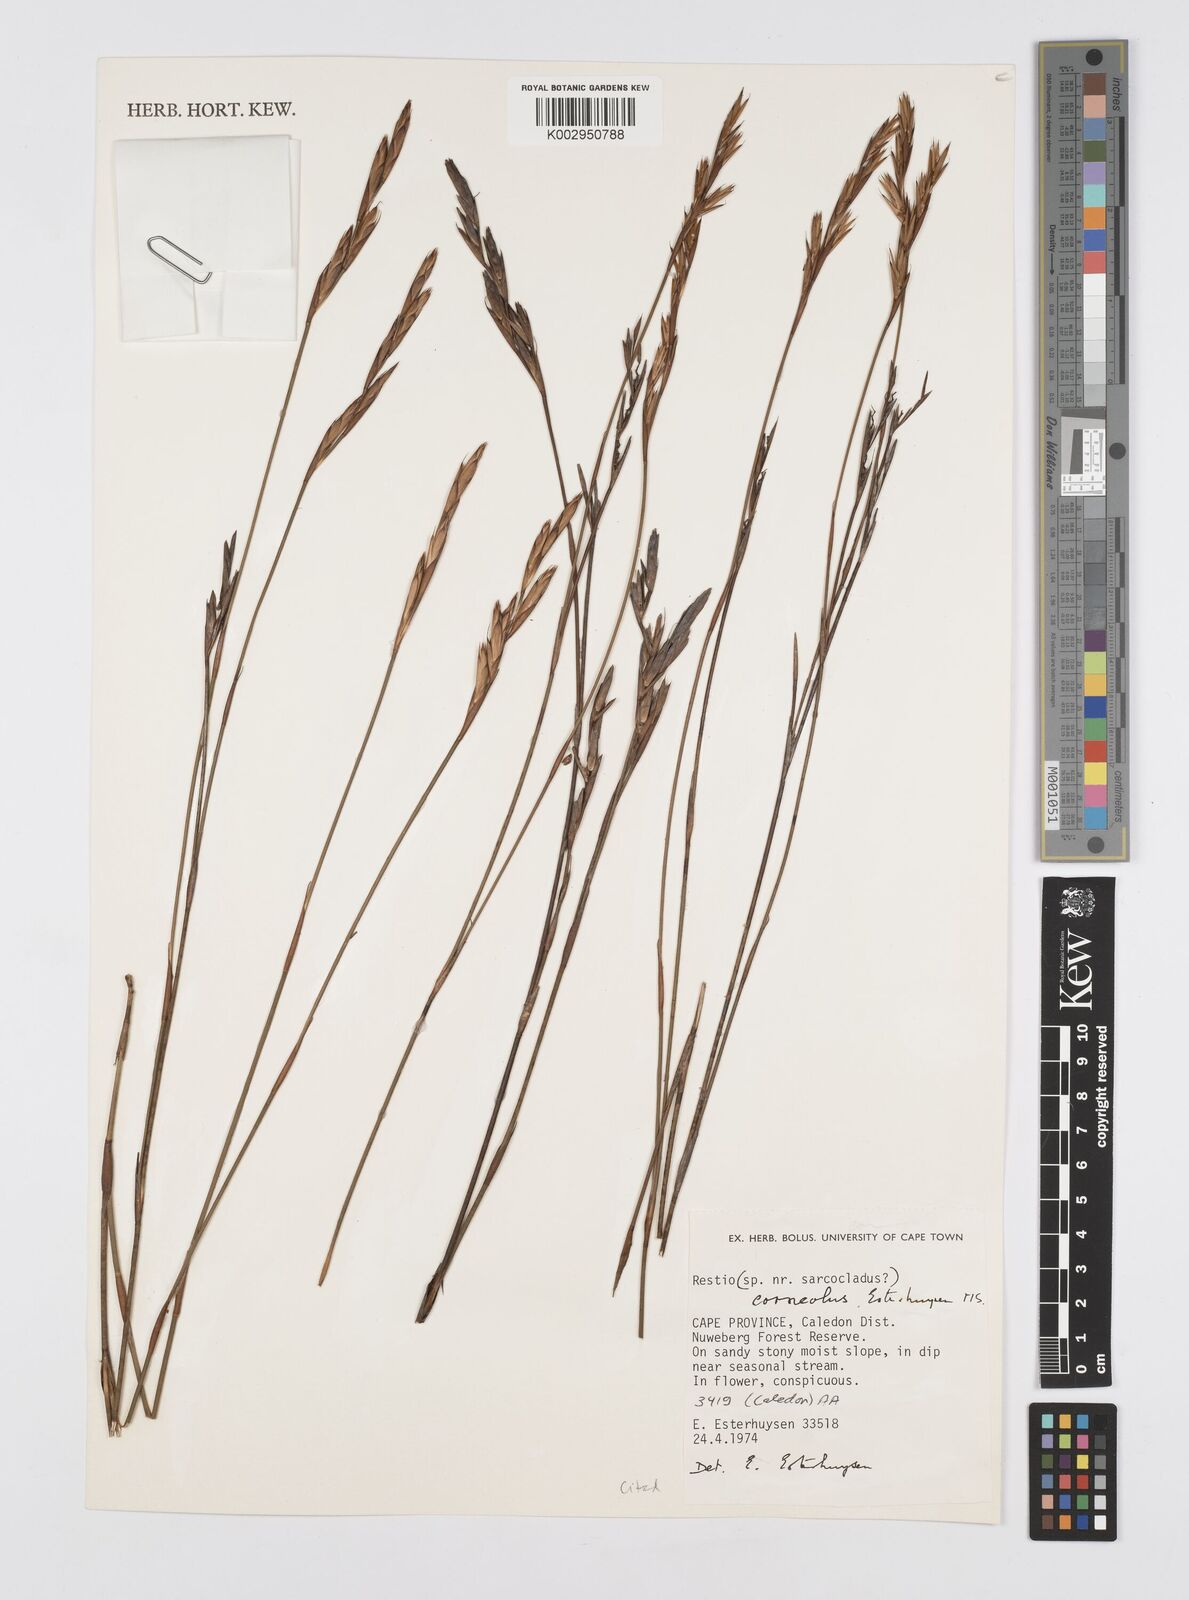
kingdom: Plantae
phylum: Tracheophyta
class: Liliopsida
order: Poales
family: Restionaceae
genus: Restio
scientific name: Restio corneolus
